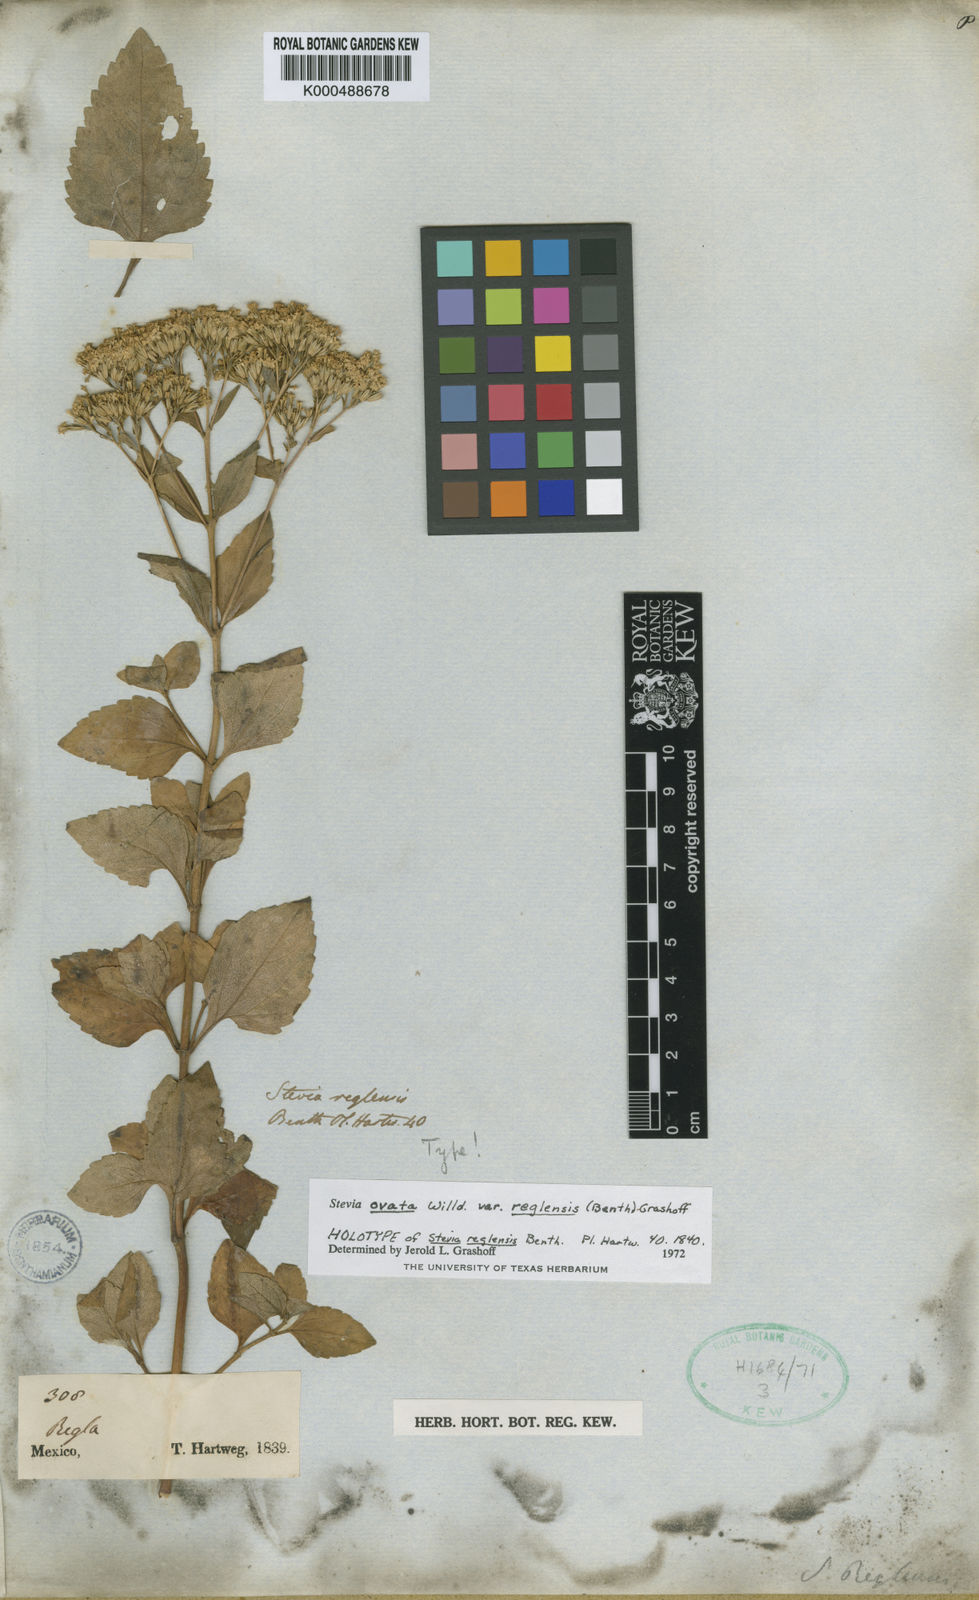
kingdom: Plantae
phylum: Tracheophyta
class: Magnoliopsida
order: Asterales
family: Asteraceae
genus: Stevia
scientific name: Stevia ovata
